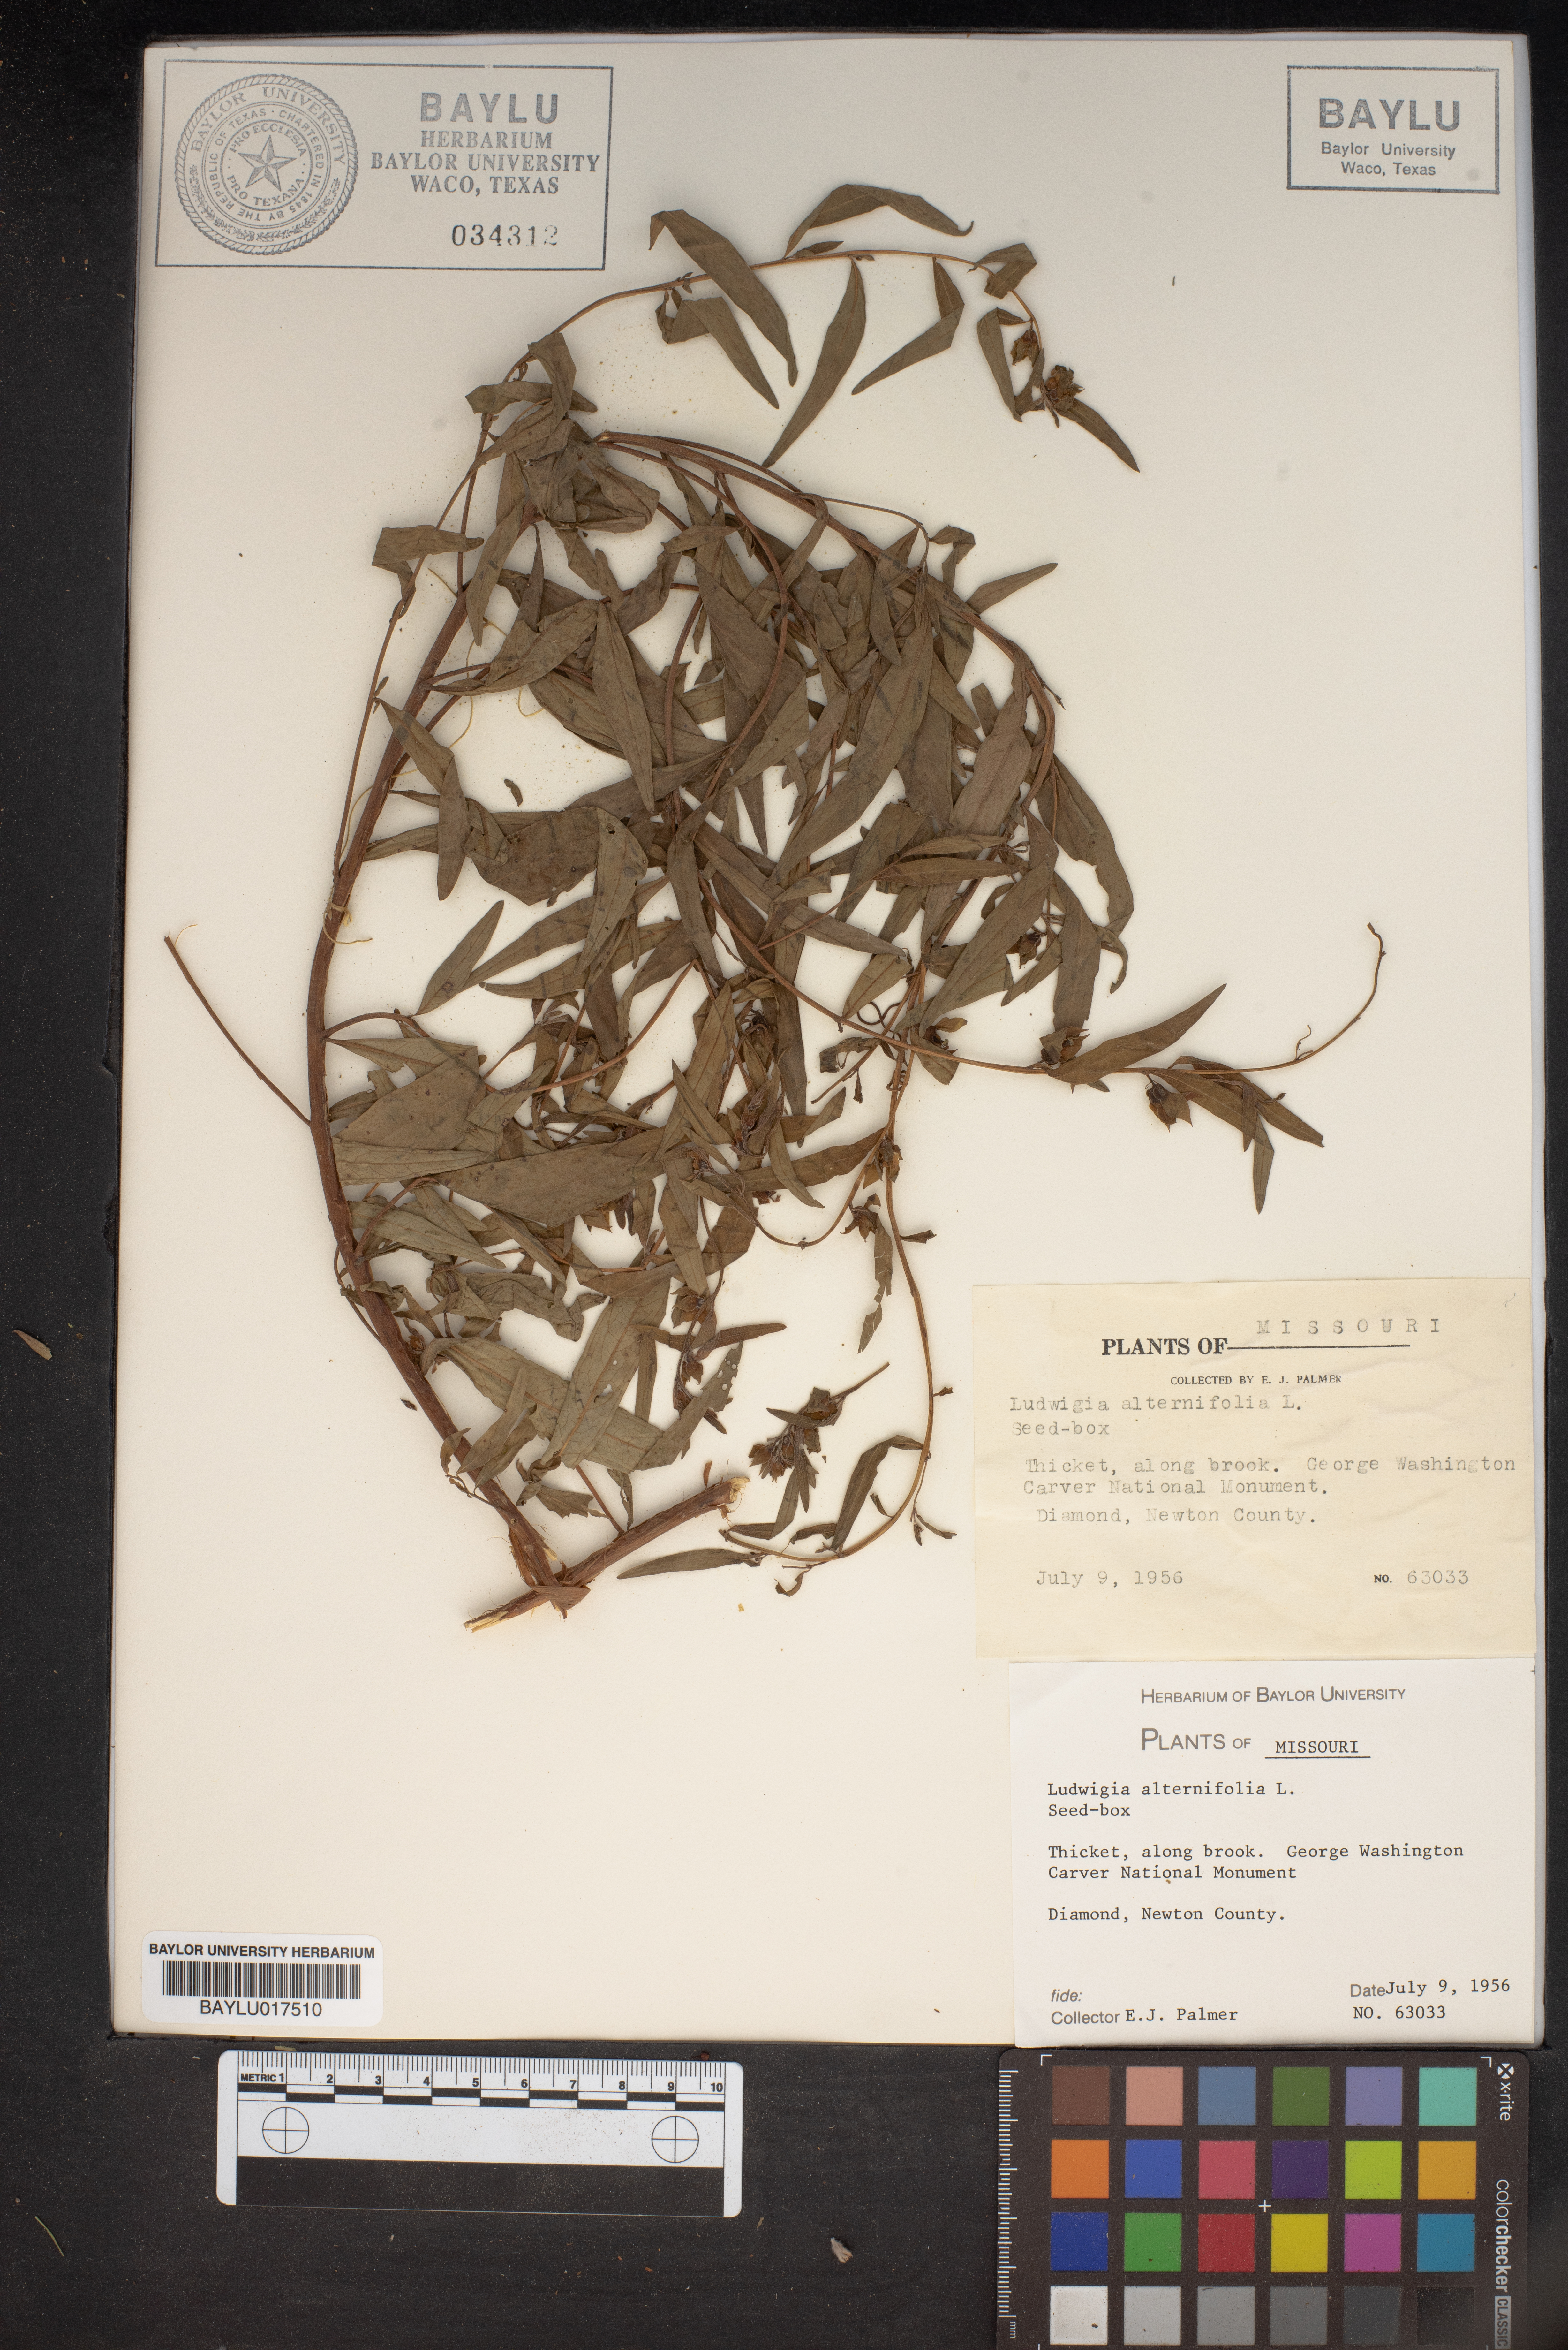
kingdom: Plantae
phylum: Tracheophyta
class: Magnoliopsida
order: Myrtales
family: Onagraceae
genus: Ludwigia
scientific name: Ludwigia alternifolia
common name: Rattlebox
